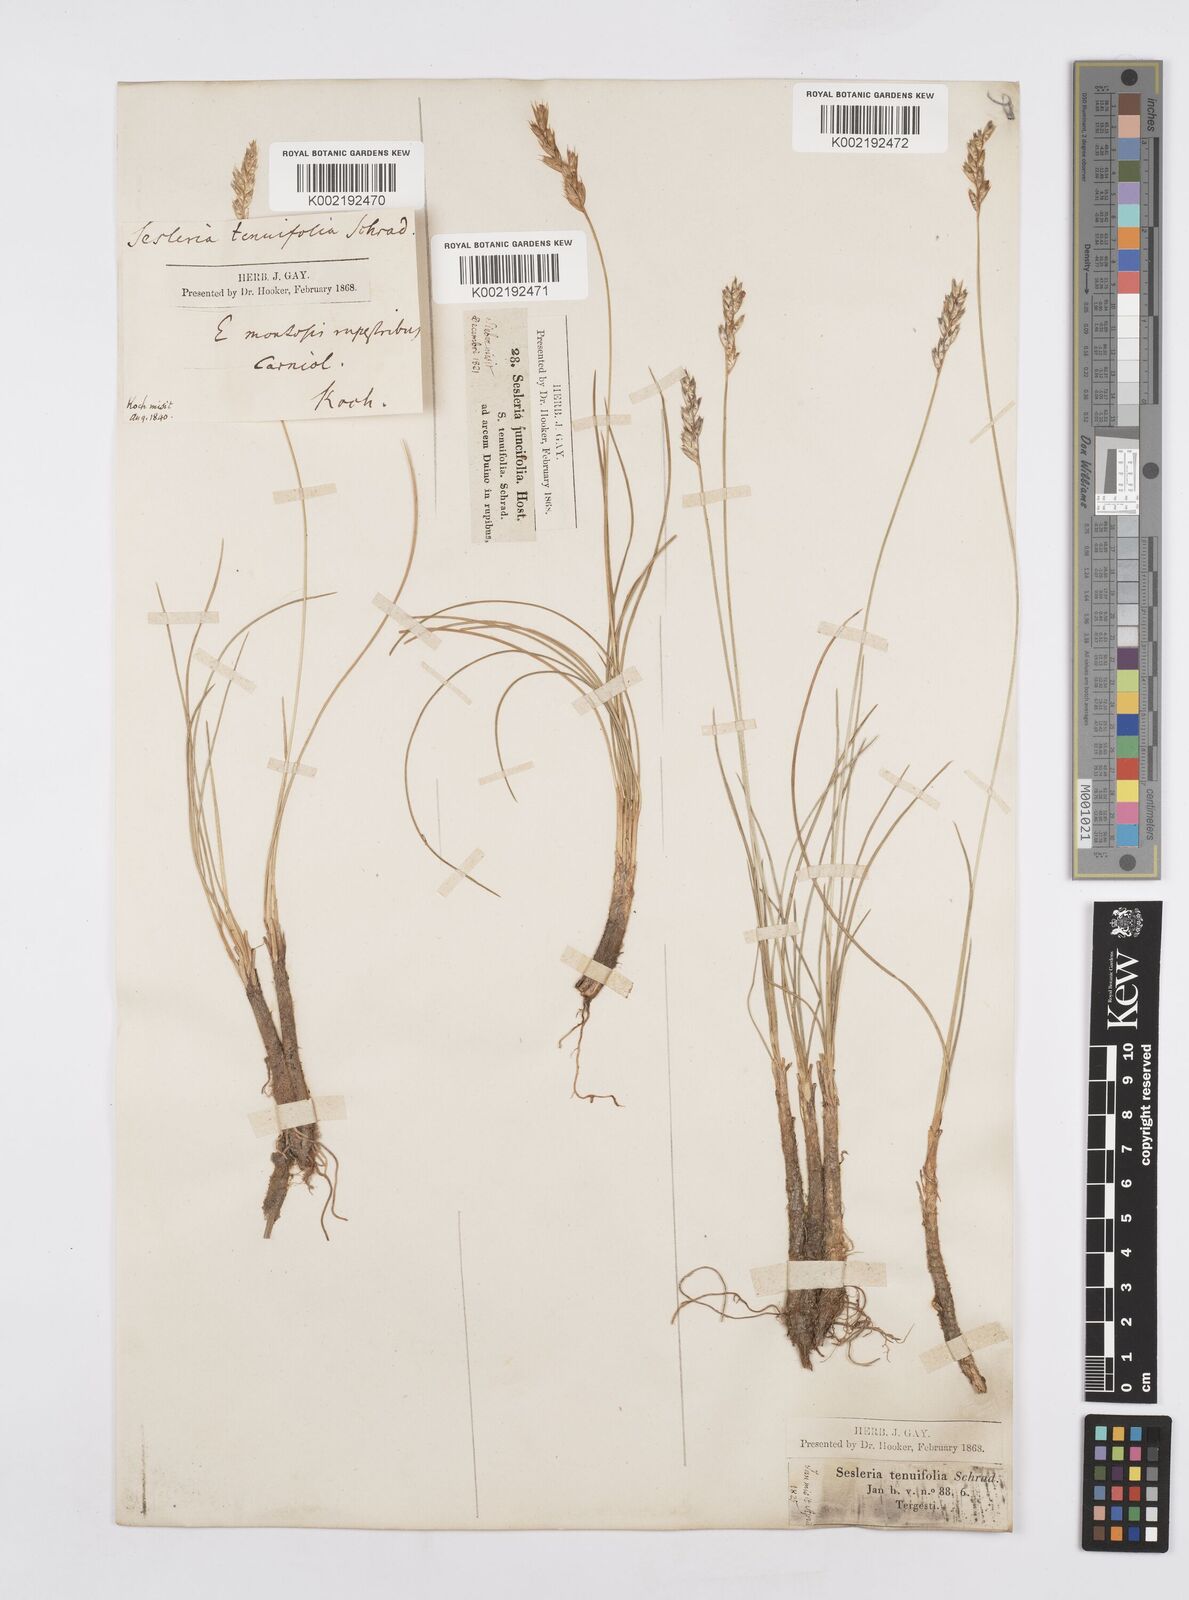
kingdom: Plantae
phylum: Tracheophyta
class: Liliopsida
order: Poales
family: Poaceae
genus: Sesleria
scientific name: Sesleria juncifolia
